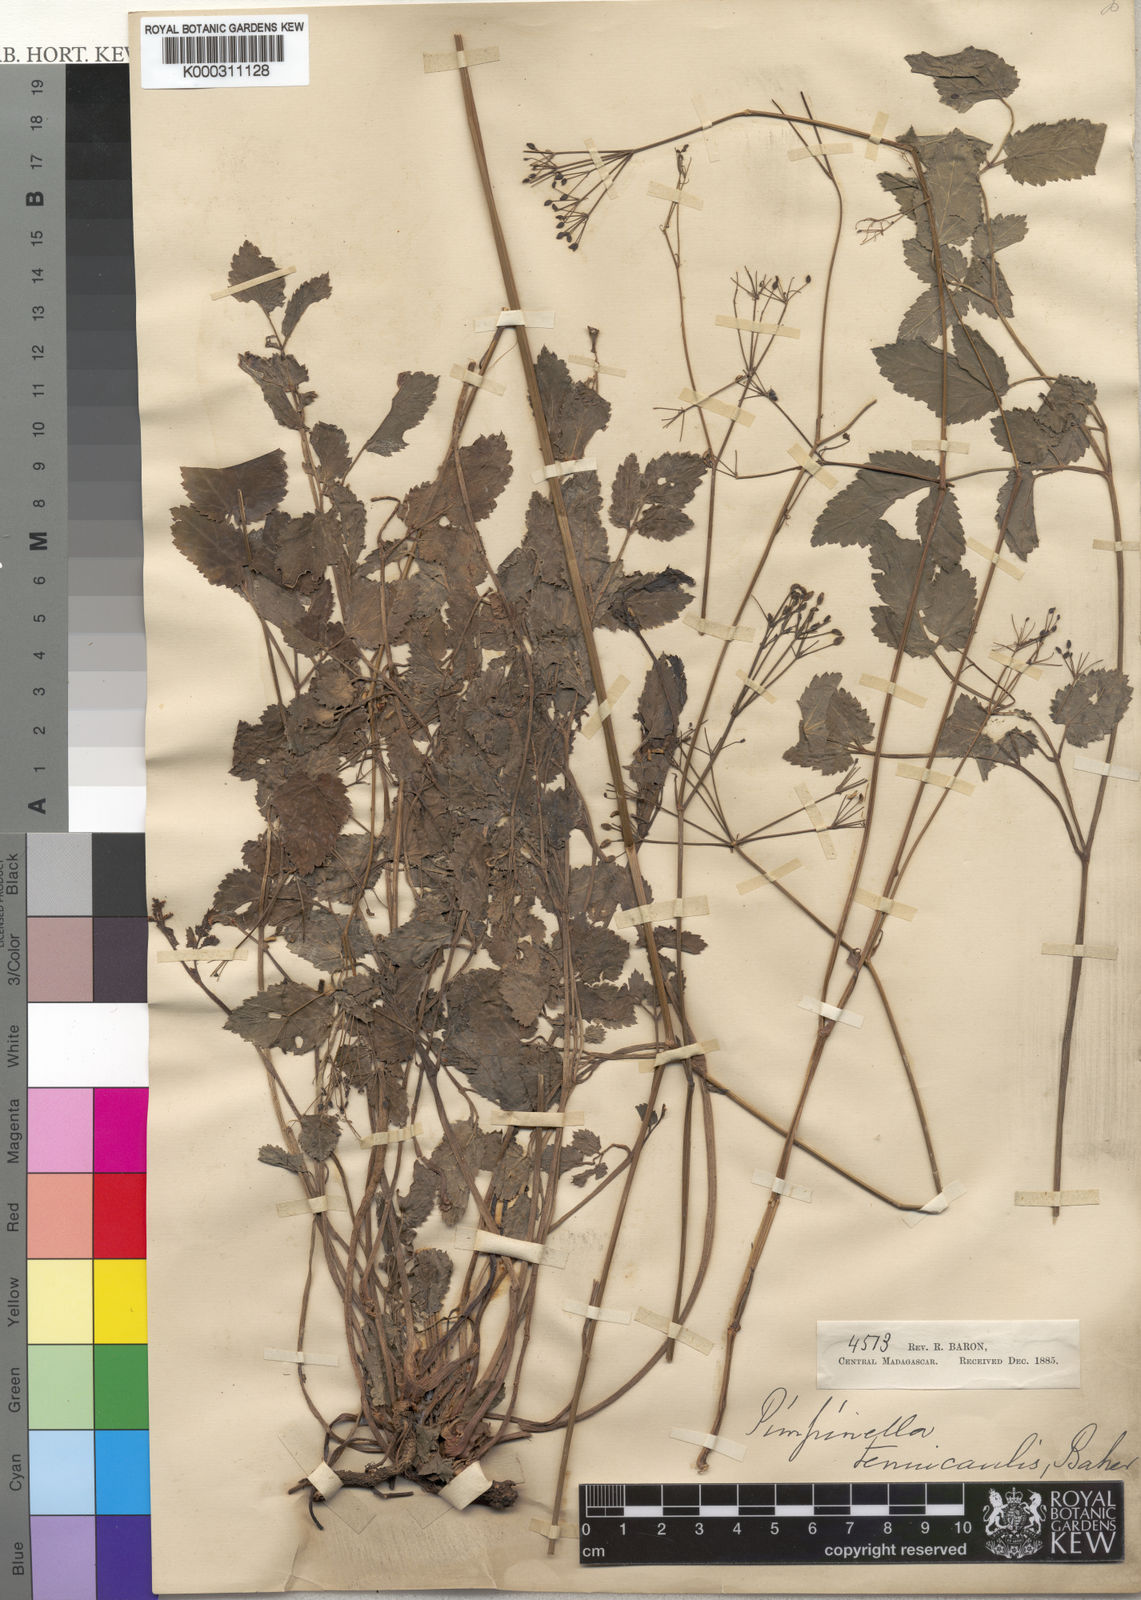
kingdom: Plantae
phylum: Tracheophyta
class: Magnoliopsida
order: Apiales
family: Apiaceae
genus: Pimpinella
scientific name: Pimpinella tenuicaulis
